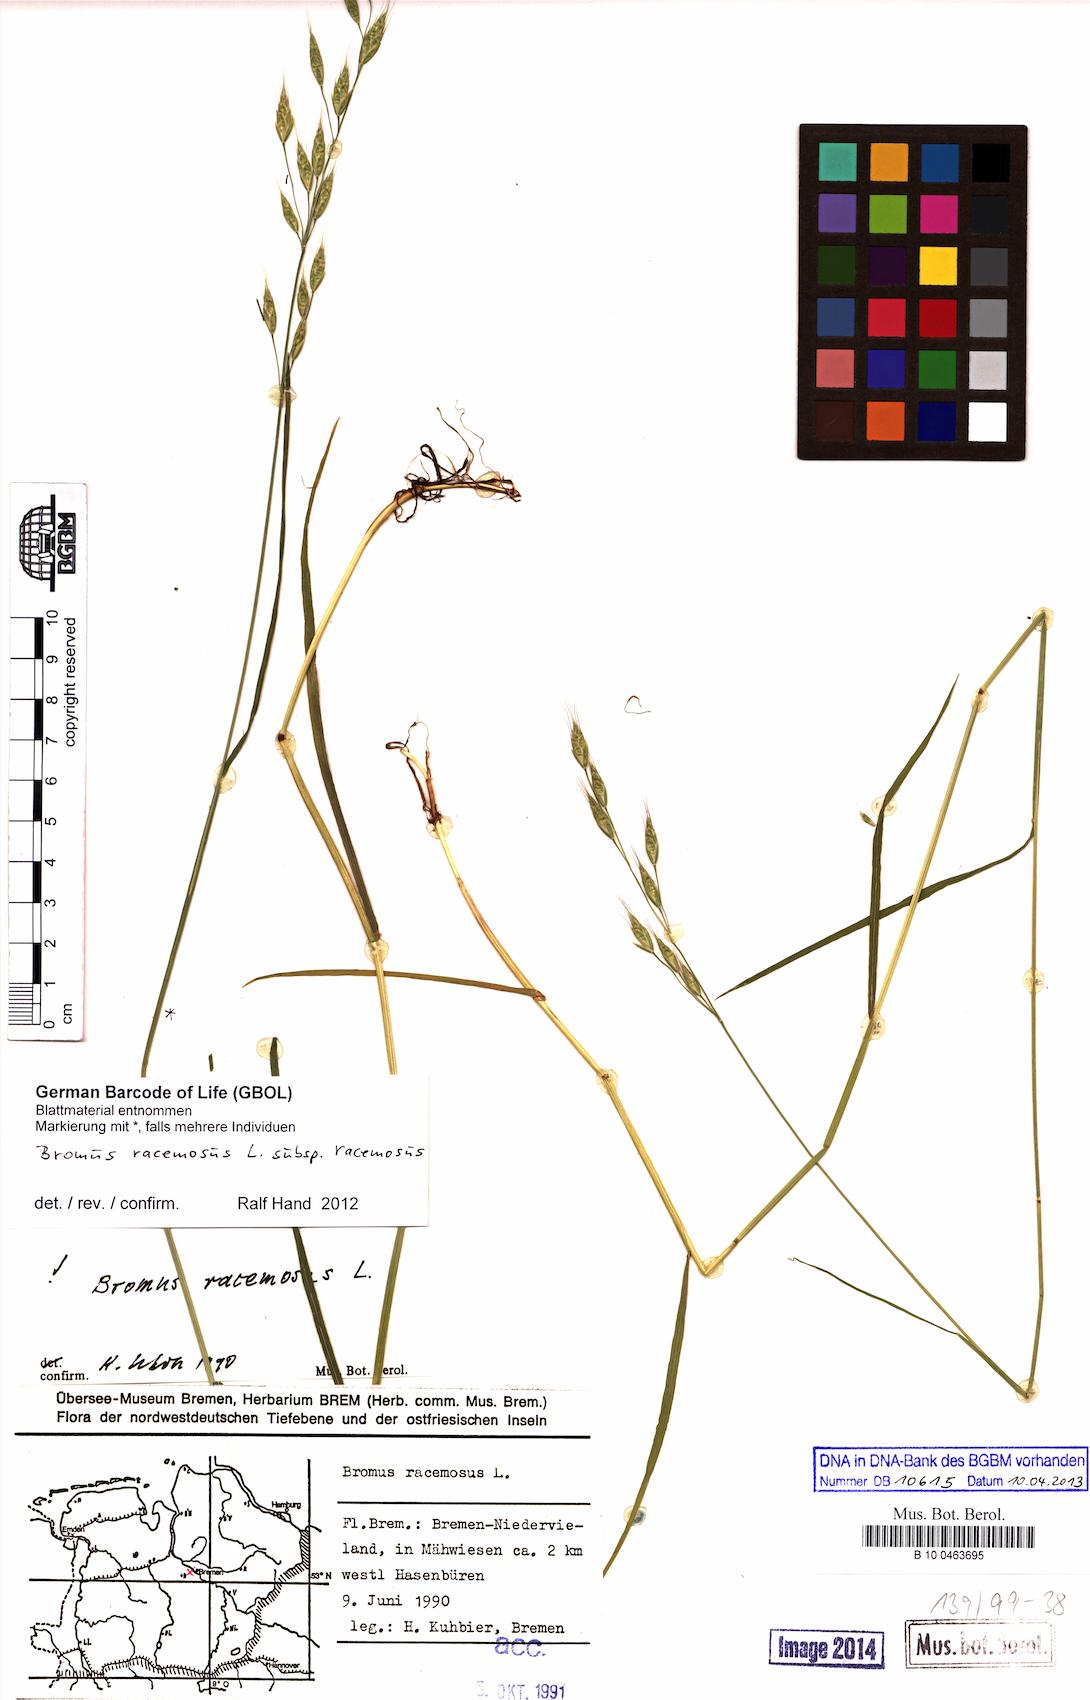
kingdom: Plantae
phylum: Tracheophyta
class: Liliopsida
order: Poales
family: Poaceae
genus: Bromus
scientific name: Bromus racemosus
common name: Bald brome
